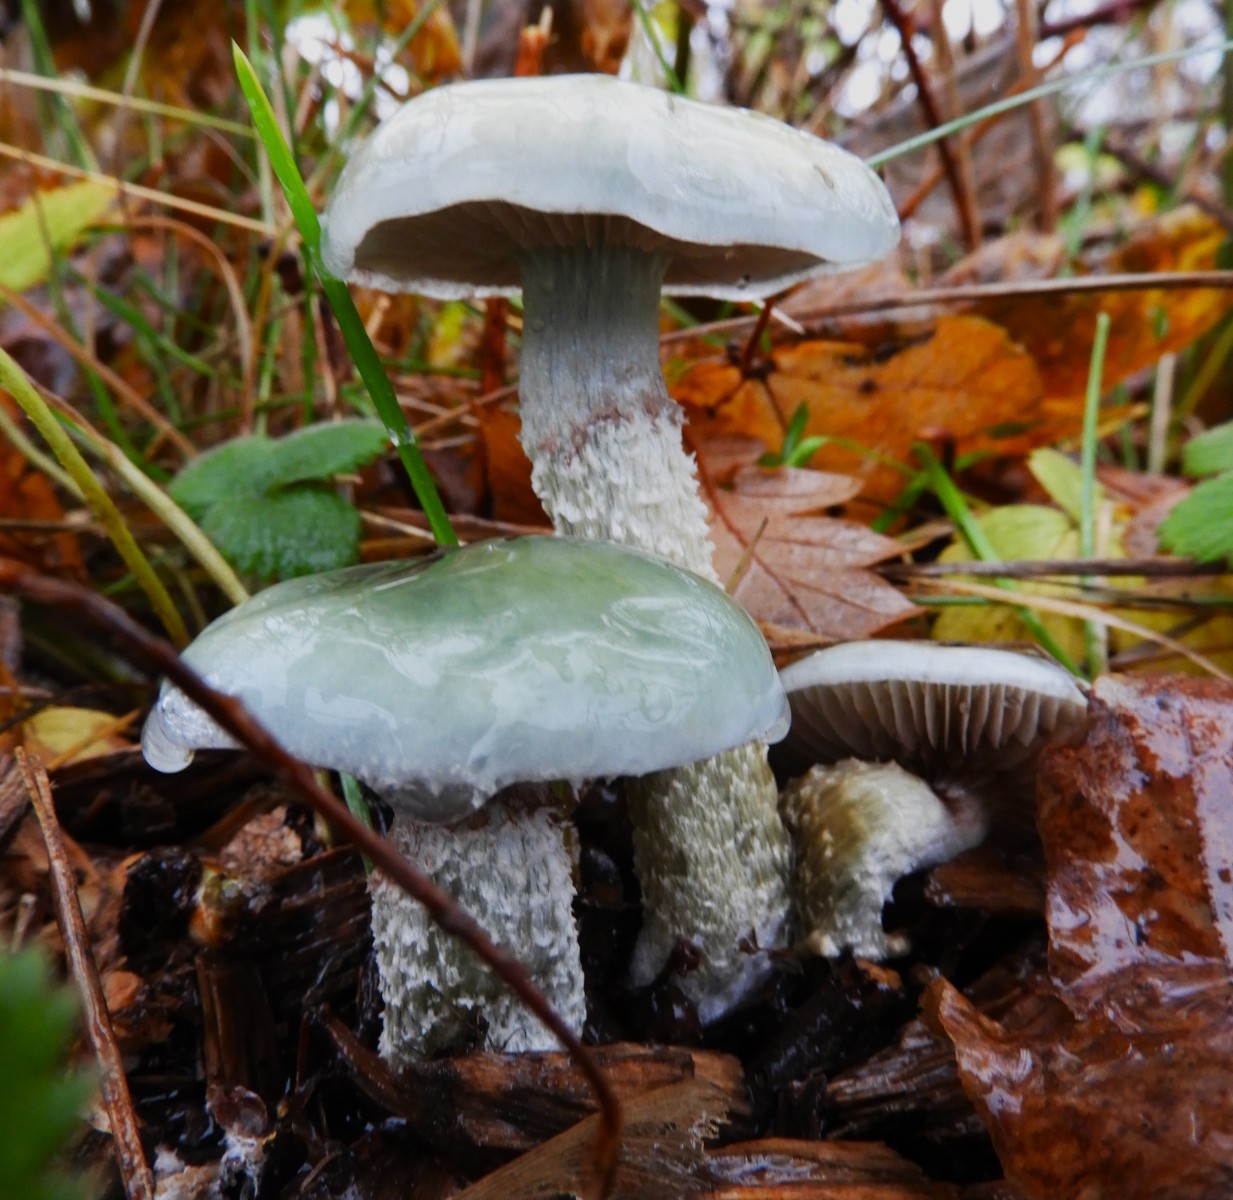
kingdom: Fungi
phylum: Basidiomycota
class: Agaricomycetes
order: Agaricales
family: Strophariaceae
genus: Stropharia
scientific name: Stropharia cyanea
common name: blågrøn bredblad
